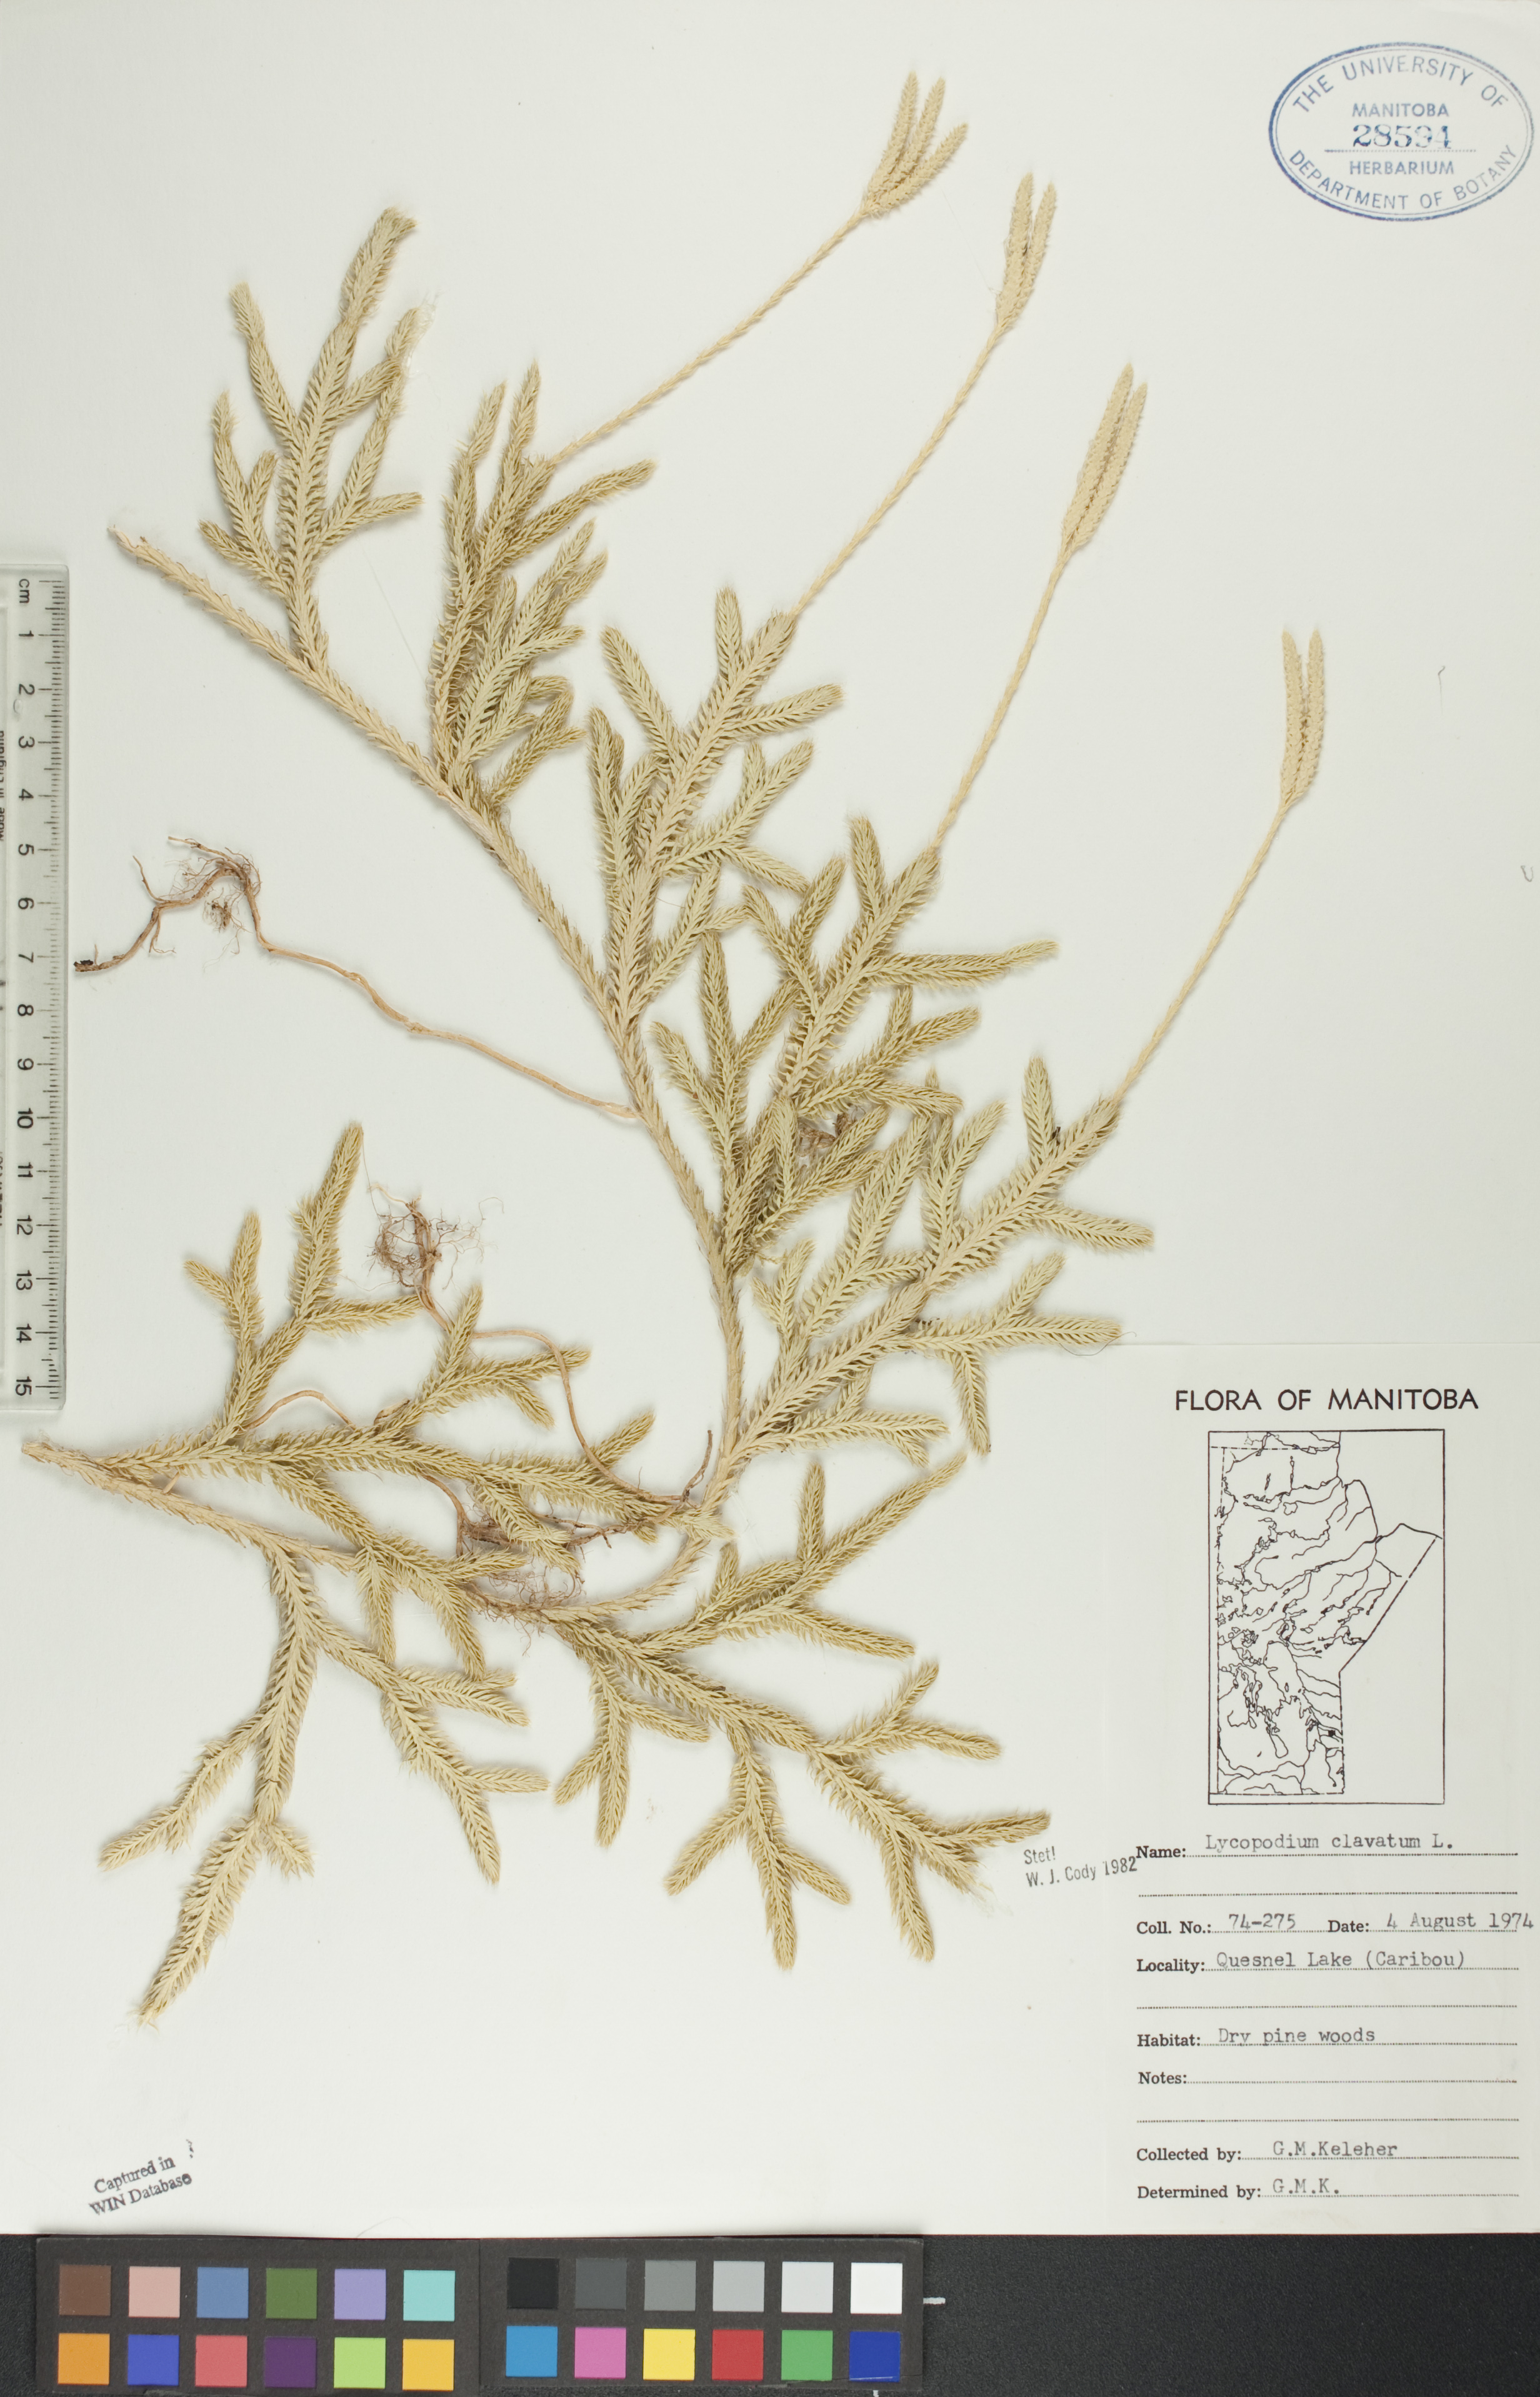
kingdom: Plantae
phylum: Tracheophyta
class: Lycopodiopsida
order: Lycopodiales
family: Lycopodiaceae
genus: Lycopodium
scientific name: Lycopodium clavatum
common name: Stag's-horn clubmoss
